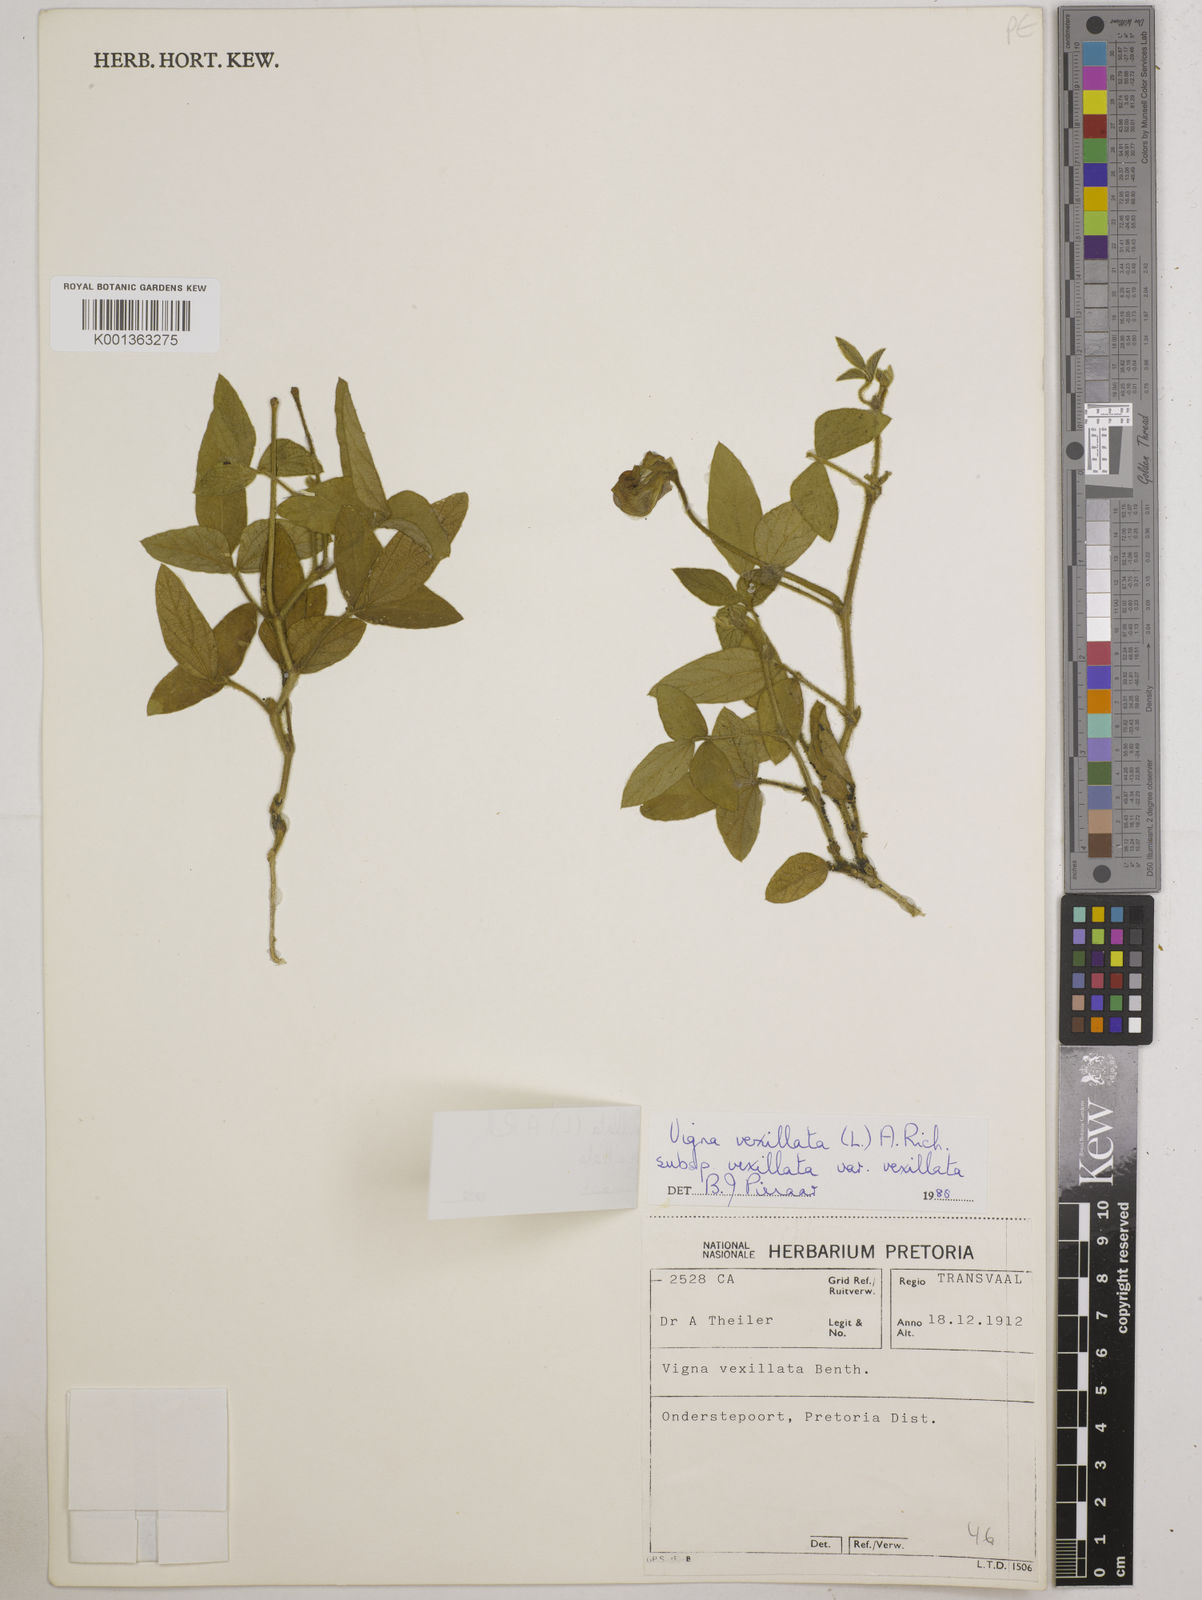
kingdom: Plantae
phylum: Tracheophyta
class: Magnoliopsida
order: Fabales
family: Fabaceae
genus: Vigna
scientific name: Vigna
